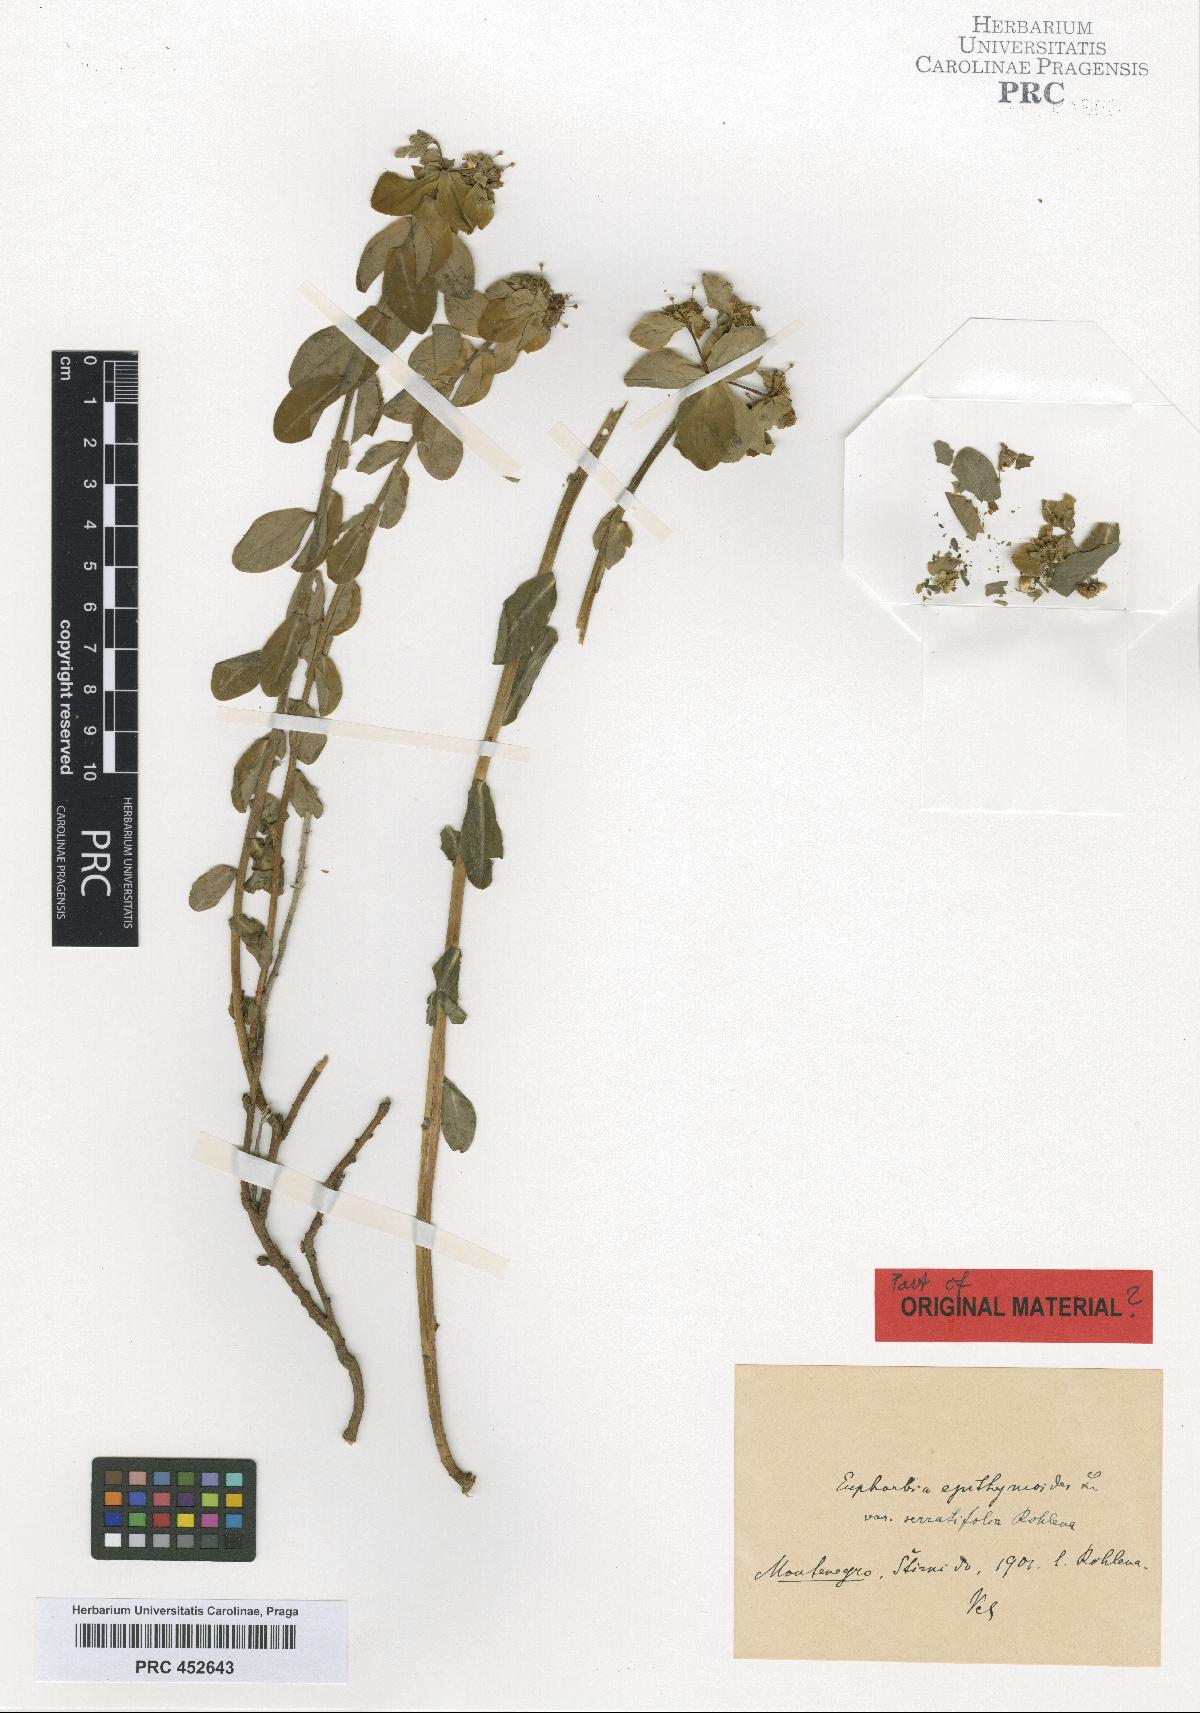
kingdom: Plantae
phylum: Tracheophyta
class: Magnoliopsida
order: Malpighiales
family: Euphorbiaceae
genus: Euphorbia
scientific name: Euphorbia montenegrina
